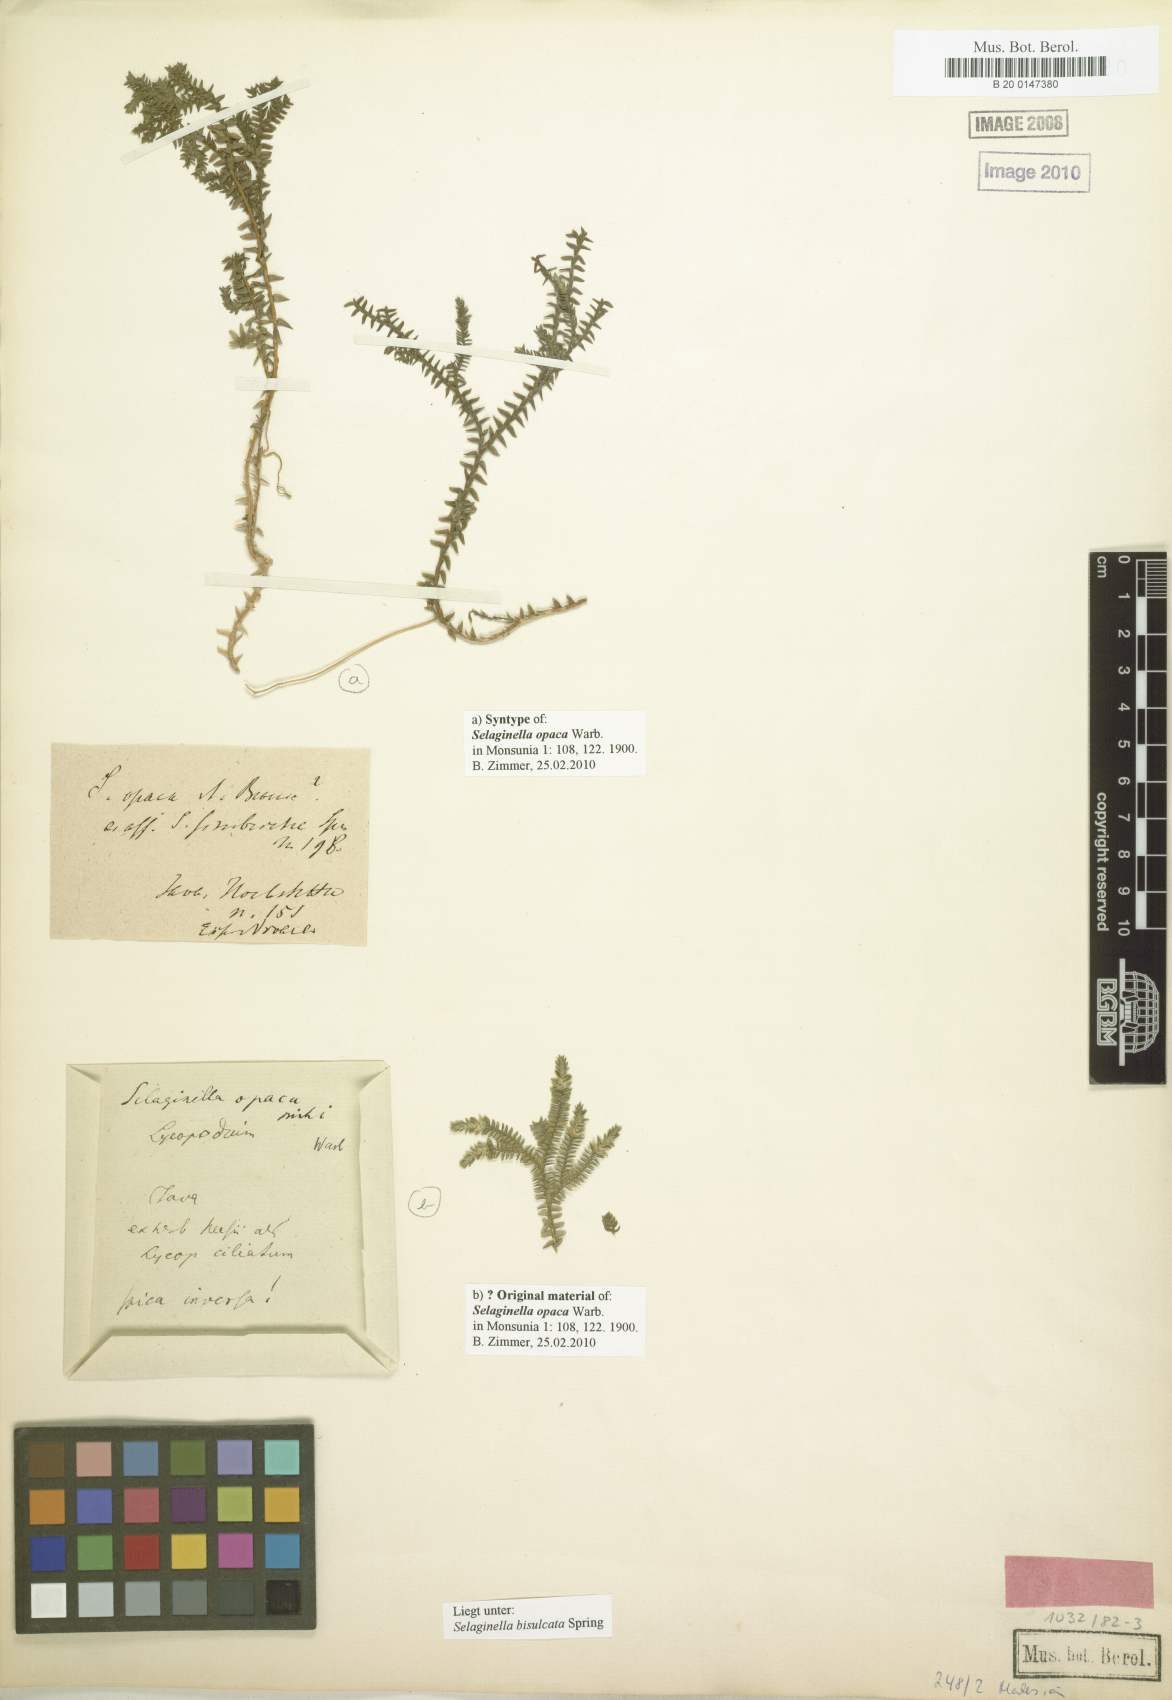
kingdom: Plantae
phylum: Tracheophyta
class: Lycopodiopsida
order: Selaginellales
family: Selaginellaceae
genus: Selaginella
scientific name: Selaginella bisulcata
